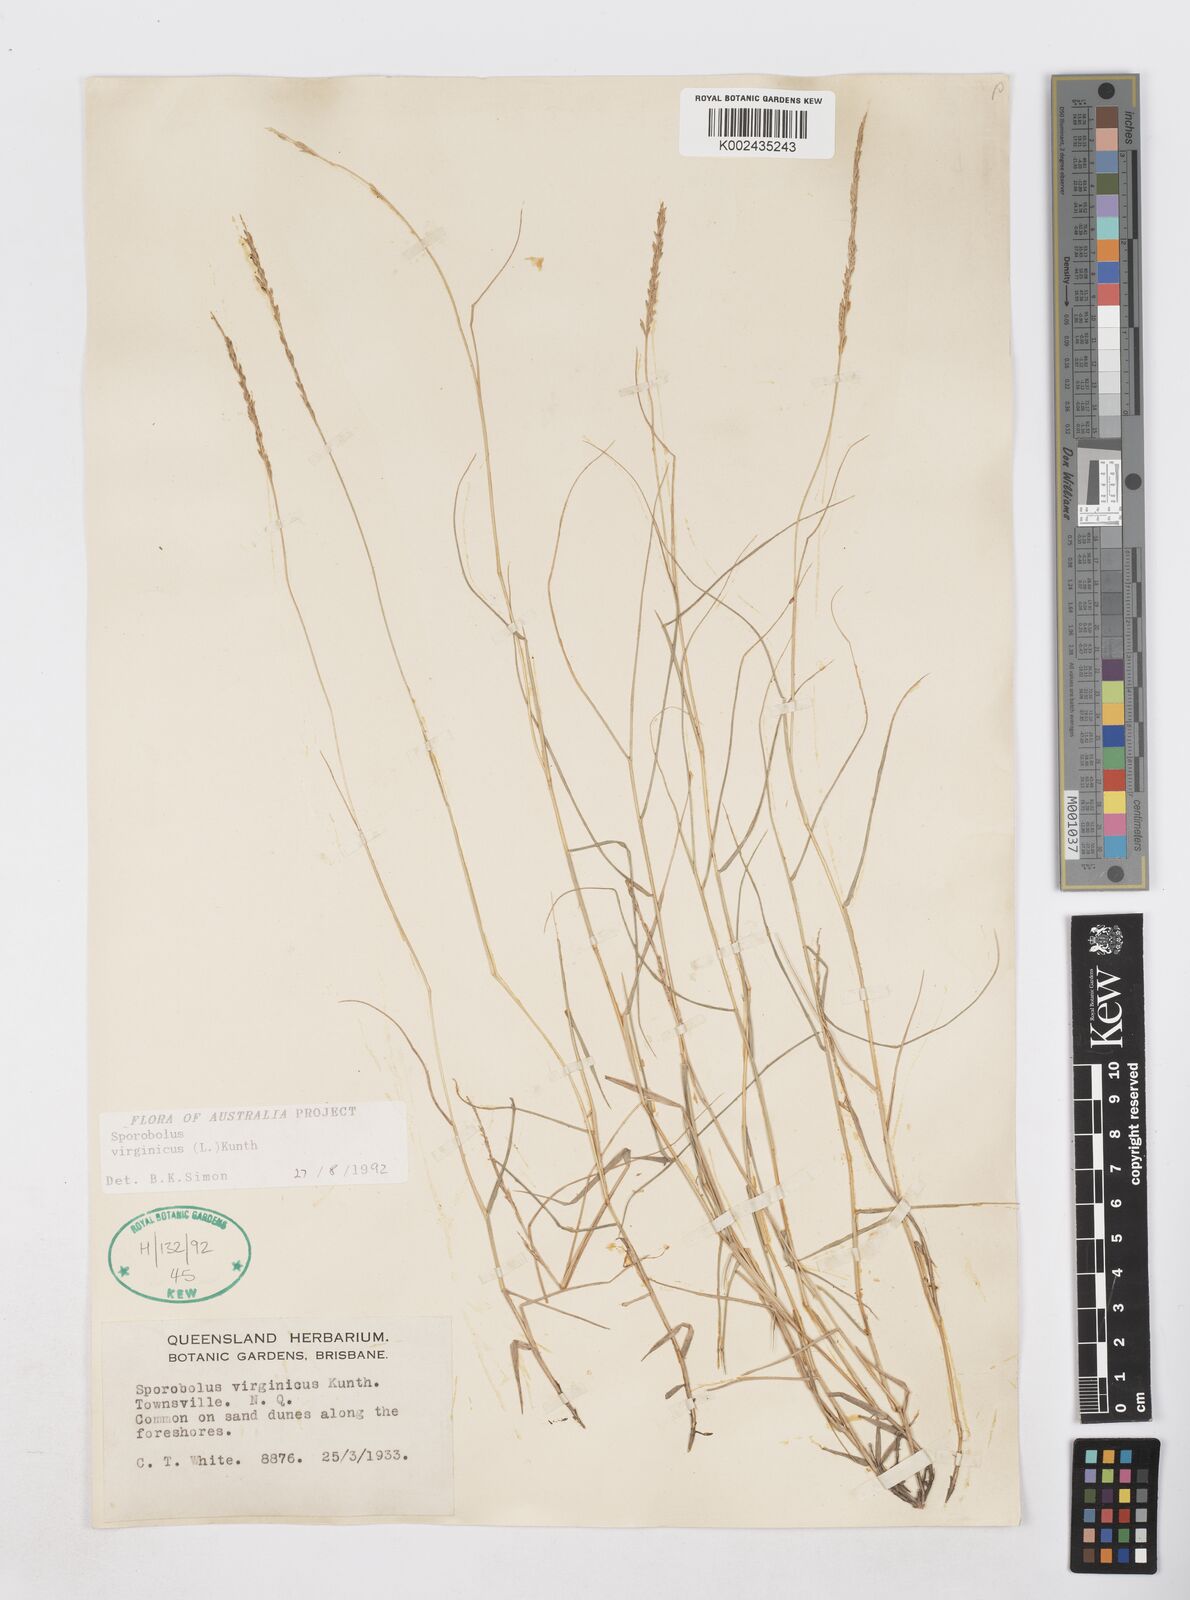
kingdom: Plantae
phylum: Tracheophyta
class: Liliopsida
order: Poales
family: Poaceae
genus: Sporobolus
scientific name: Sporobolus virginicus
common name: Beach dropseed
